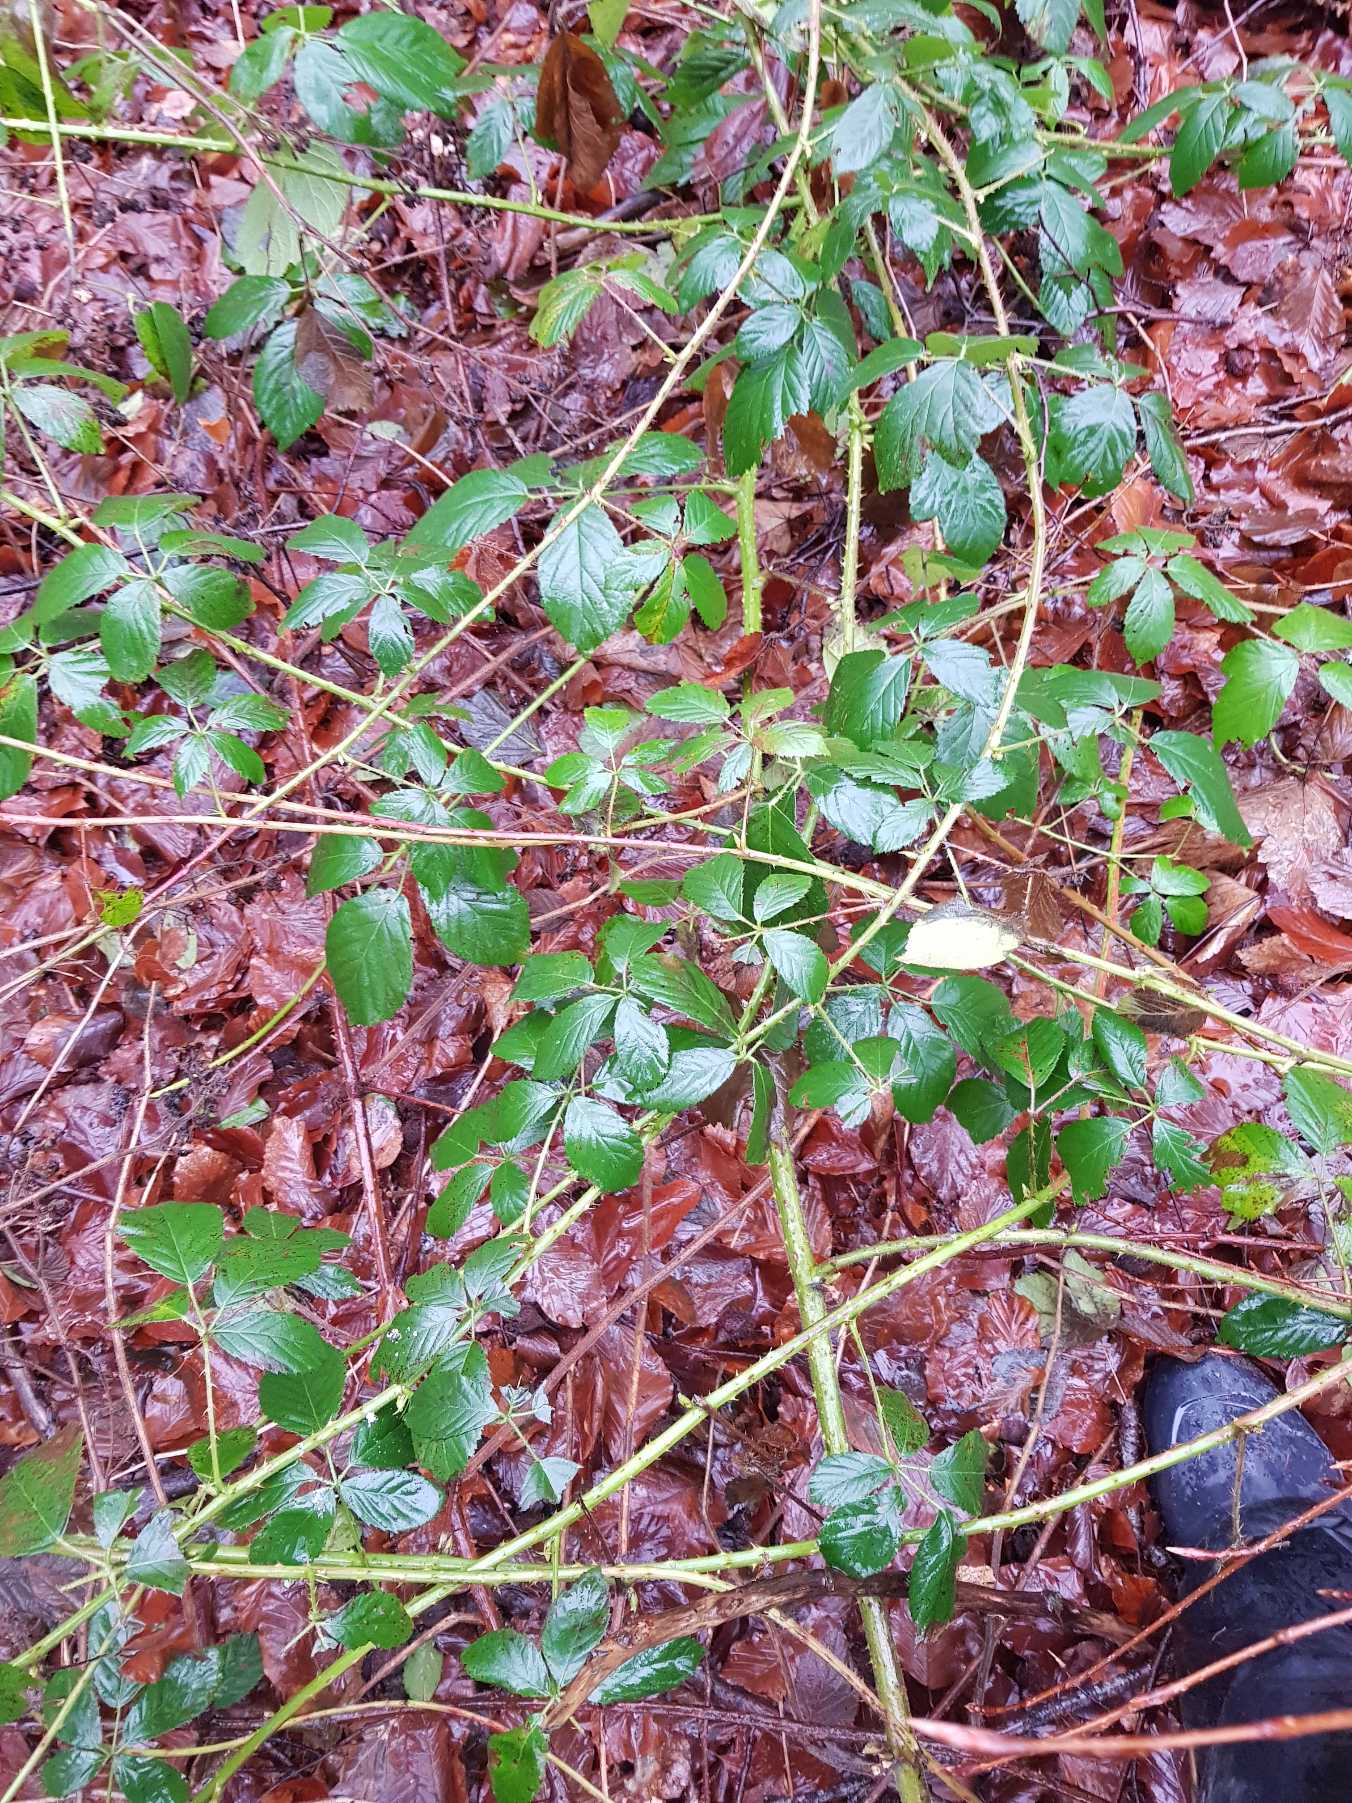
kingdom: Plantae
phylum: Tracheophyta
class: Magnoliopsida
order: Rosales
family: Rosaceae
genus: Rubus
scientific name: Rubus silvaticus
